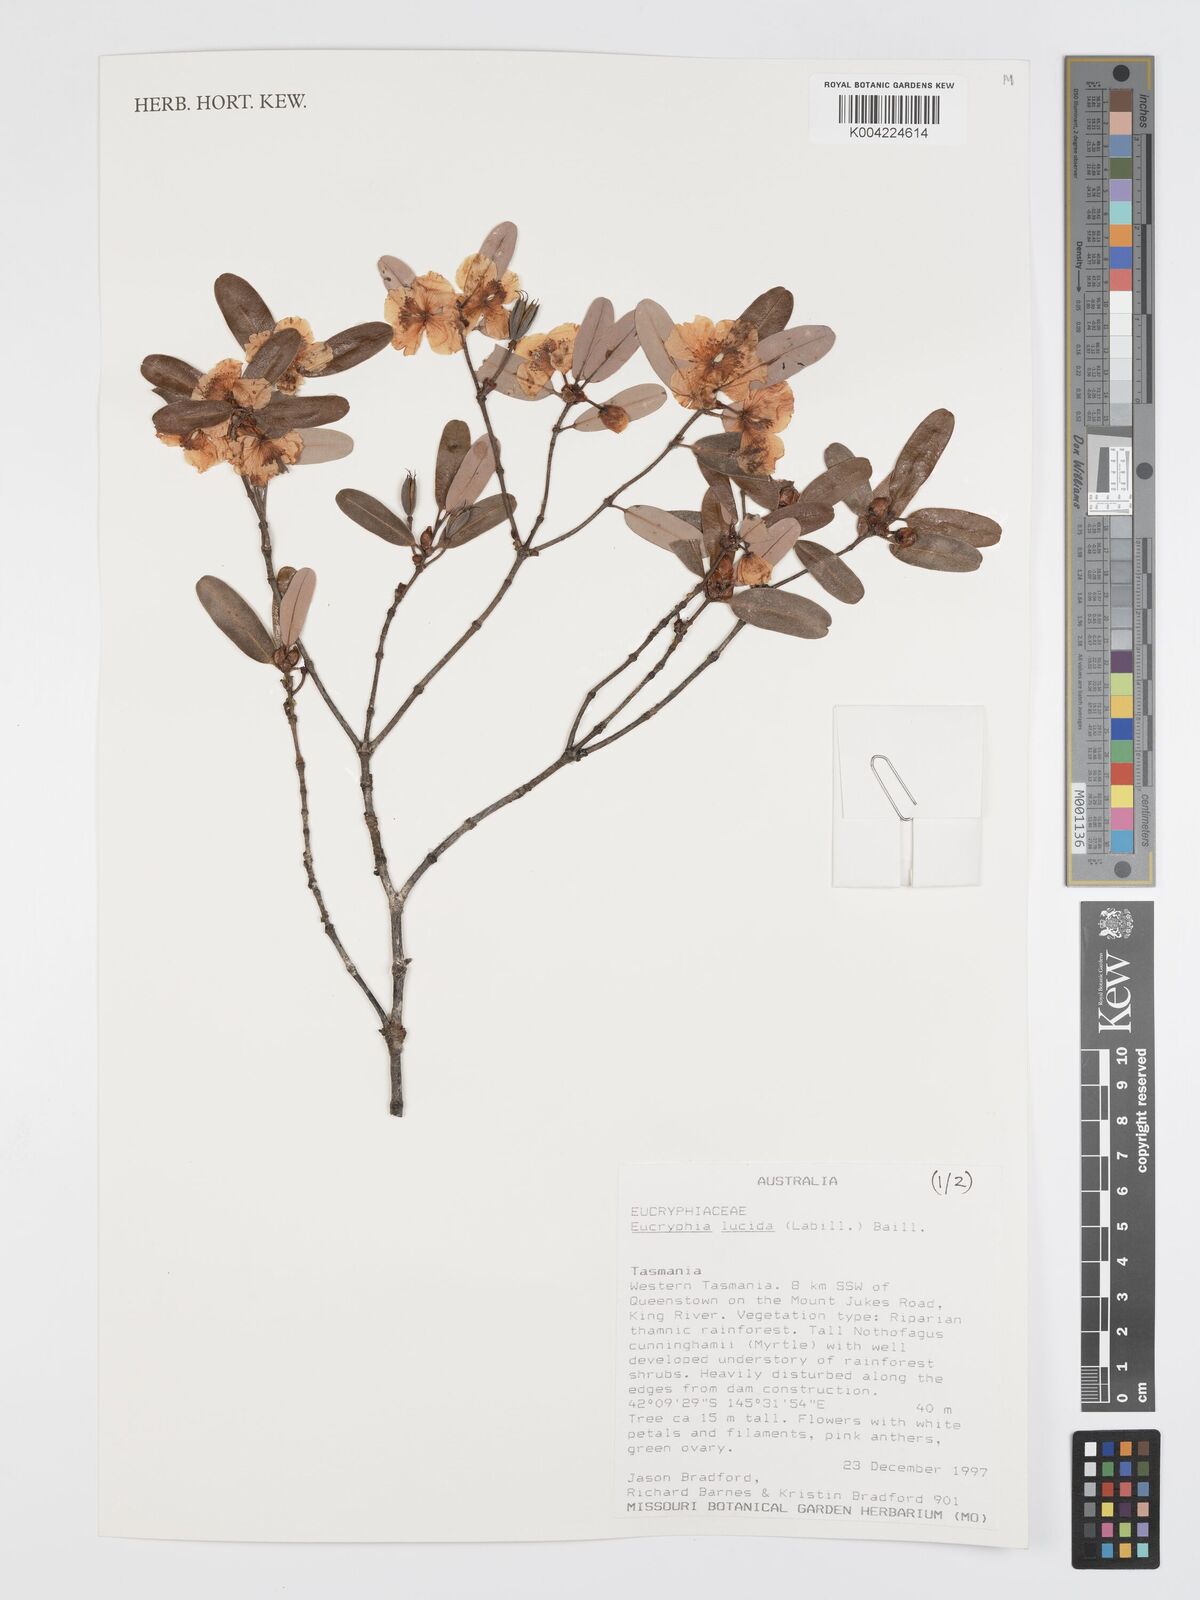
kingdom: Plantae
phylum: Tracheophyta
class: Magnoliopsida
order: Oxalidales
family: Cunoniaceae
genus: Eucryphia
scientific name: Eucryphia lucida
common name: Leatherwood
